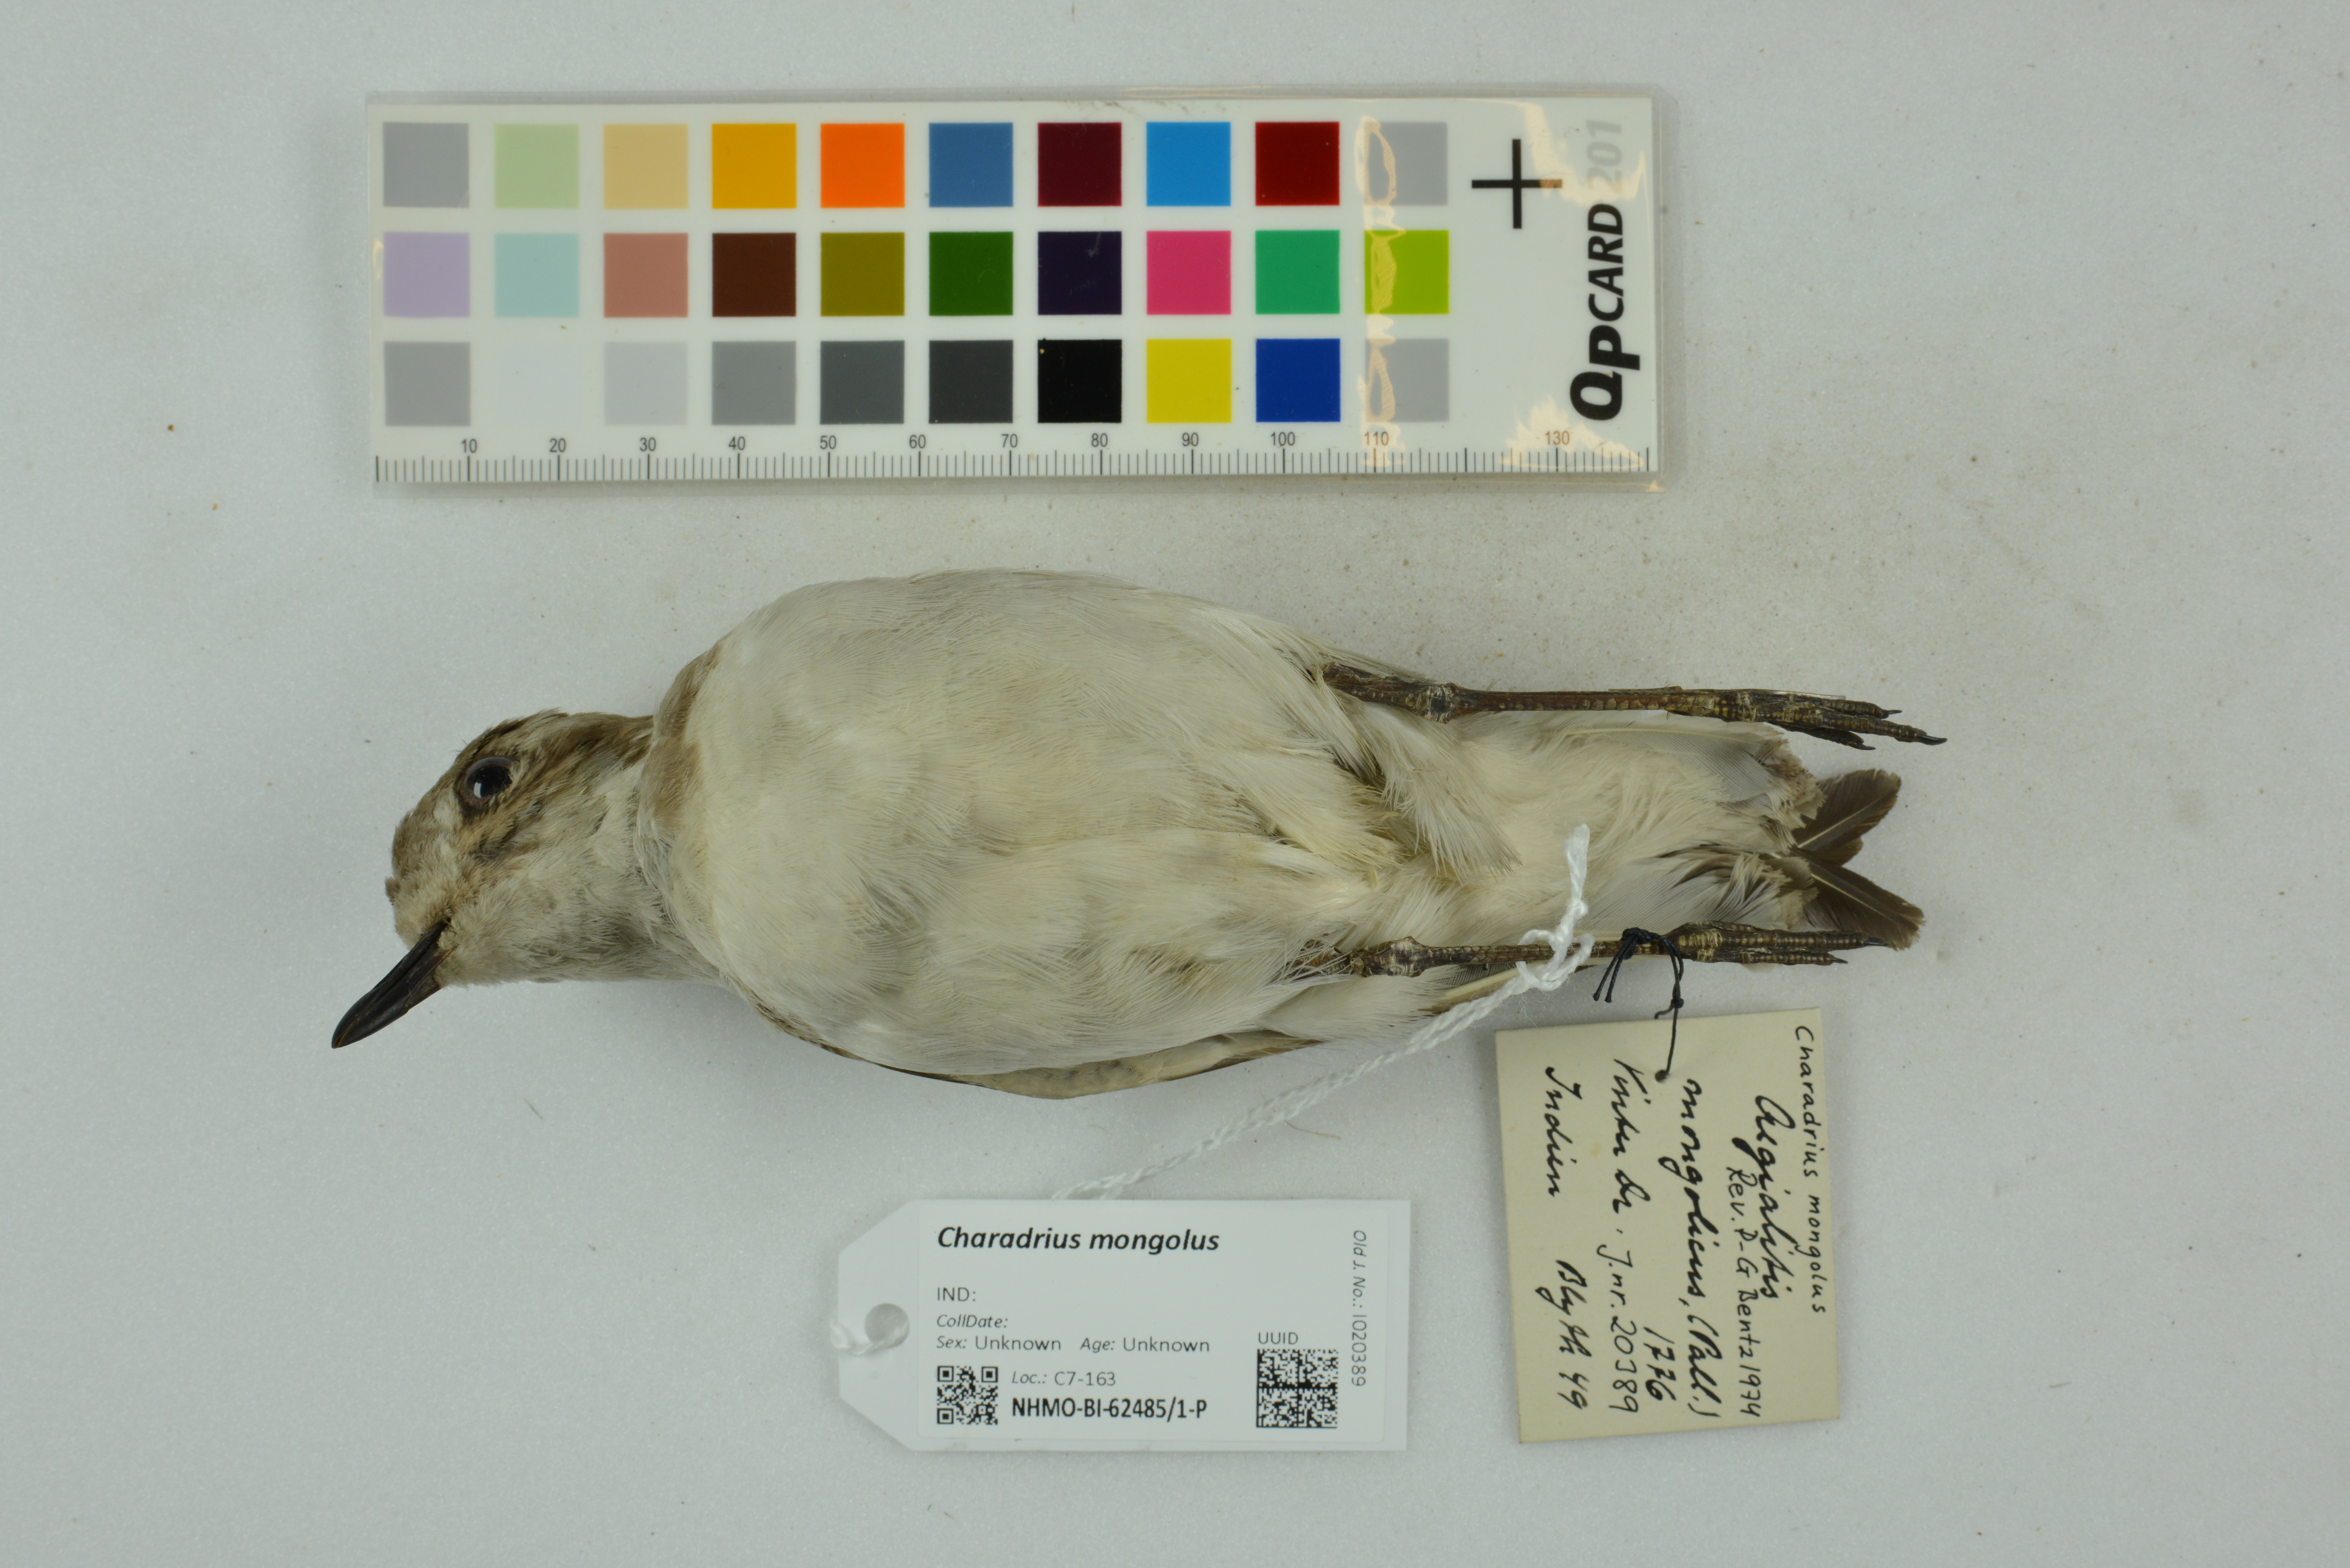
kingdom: Animalia
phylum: Chordata
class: Aves
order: Charadriiformes
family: Charadriidae
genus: Charadrius
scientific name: Charadrius mongolus
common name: Lesser sand-plover
